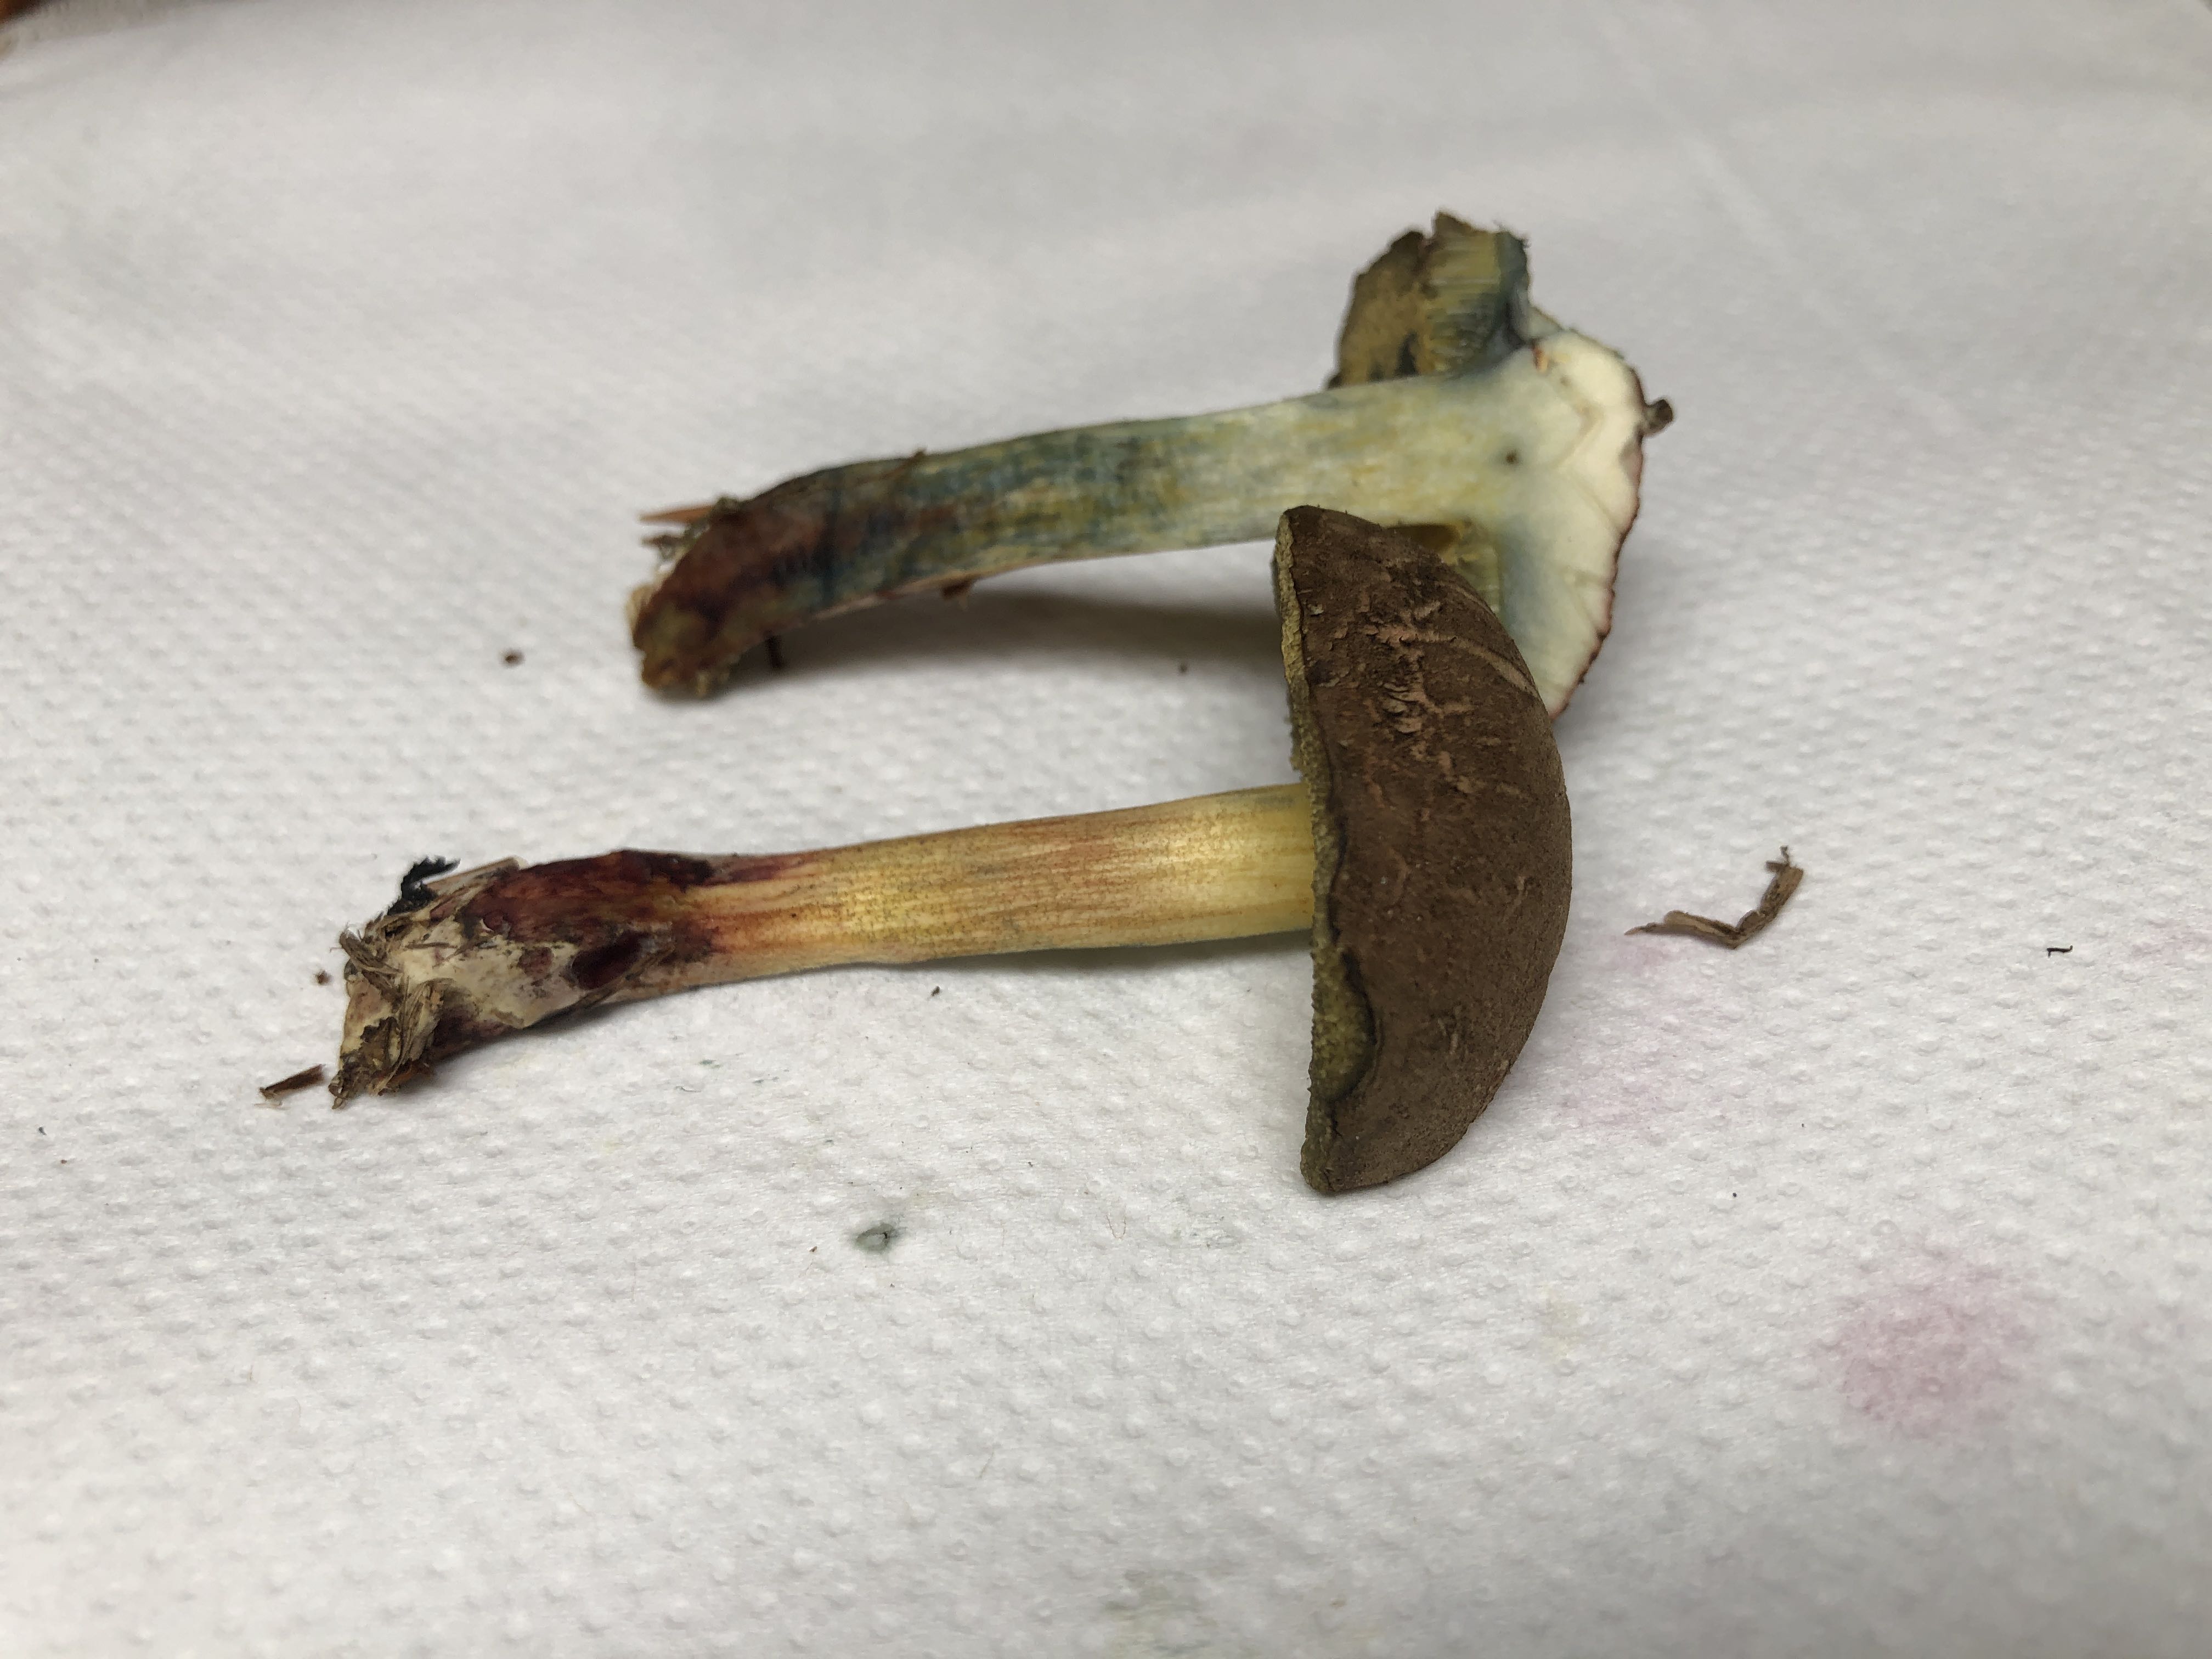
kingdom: Fungi
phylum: Basidiomycota
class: Agaricomycetes
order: Boletales
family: Boletaceae
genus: Xerocomellus
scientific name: Xerocomellus cisalpinus
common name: finsprukken rørhat
